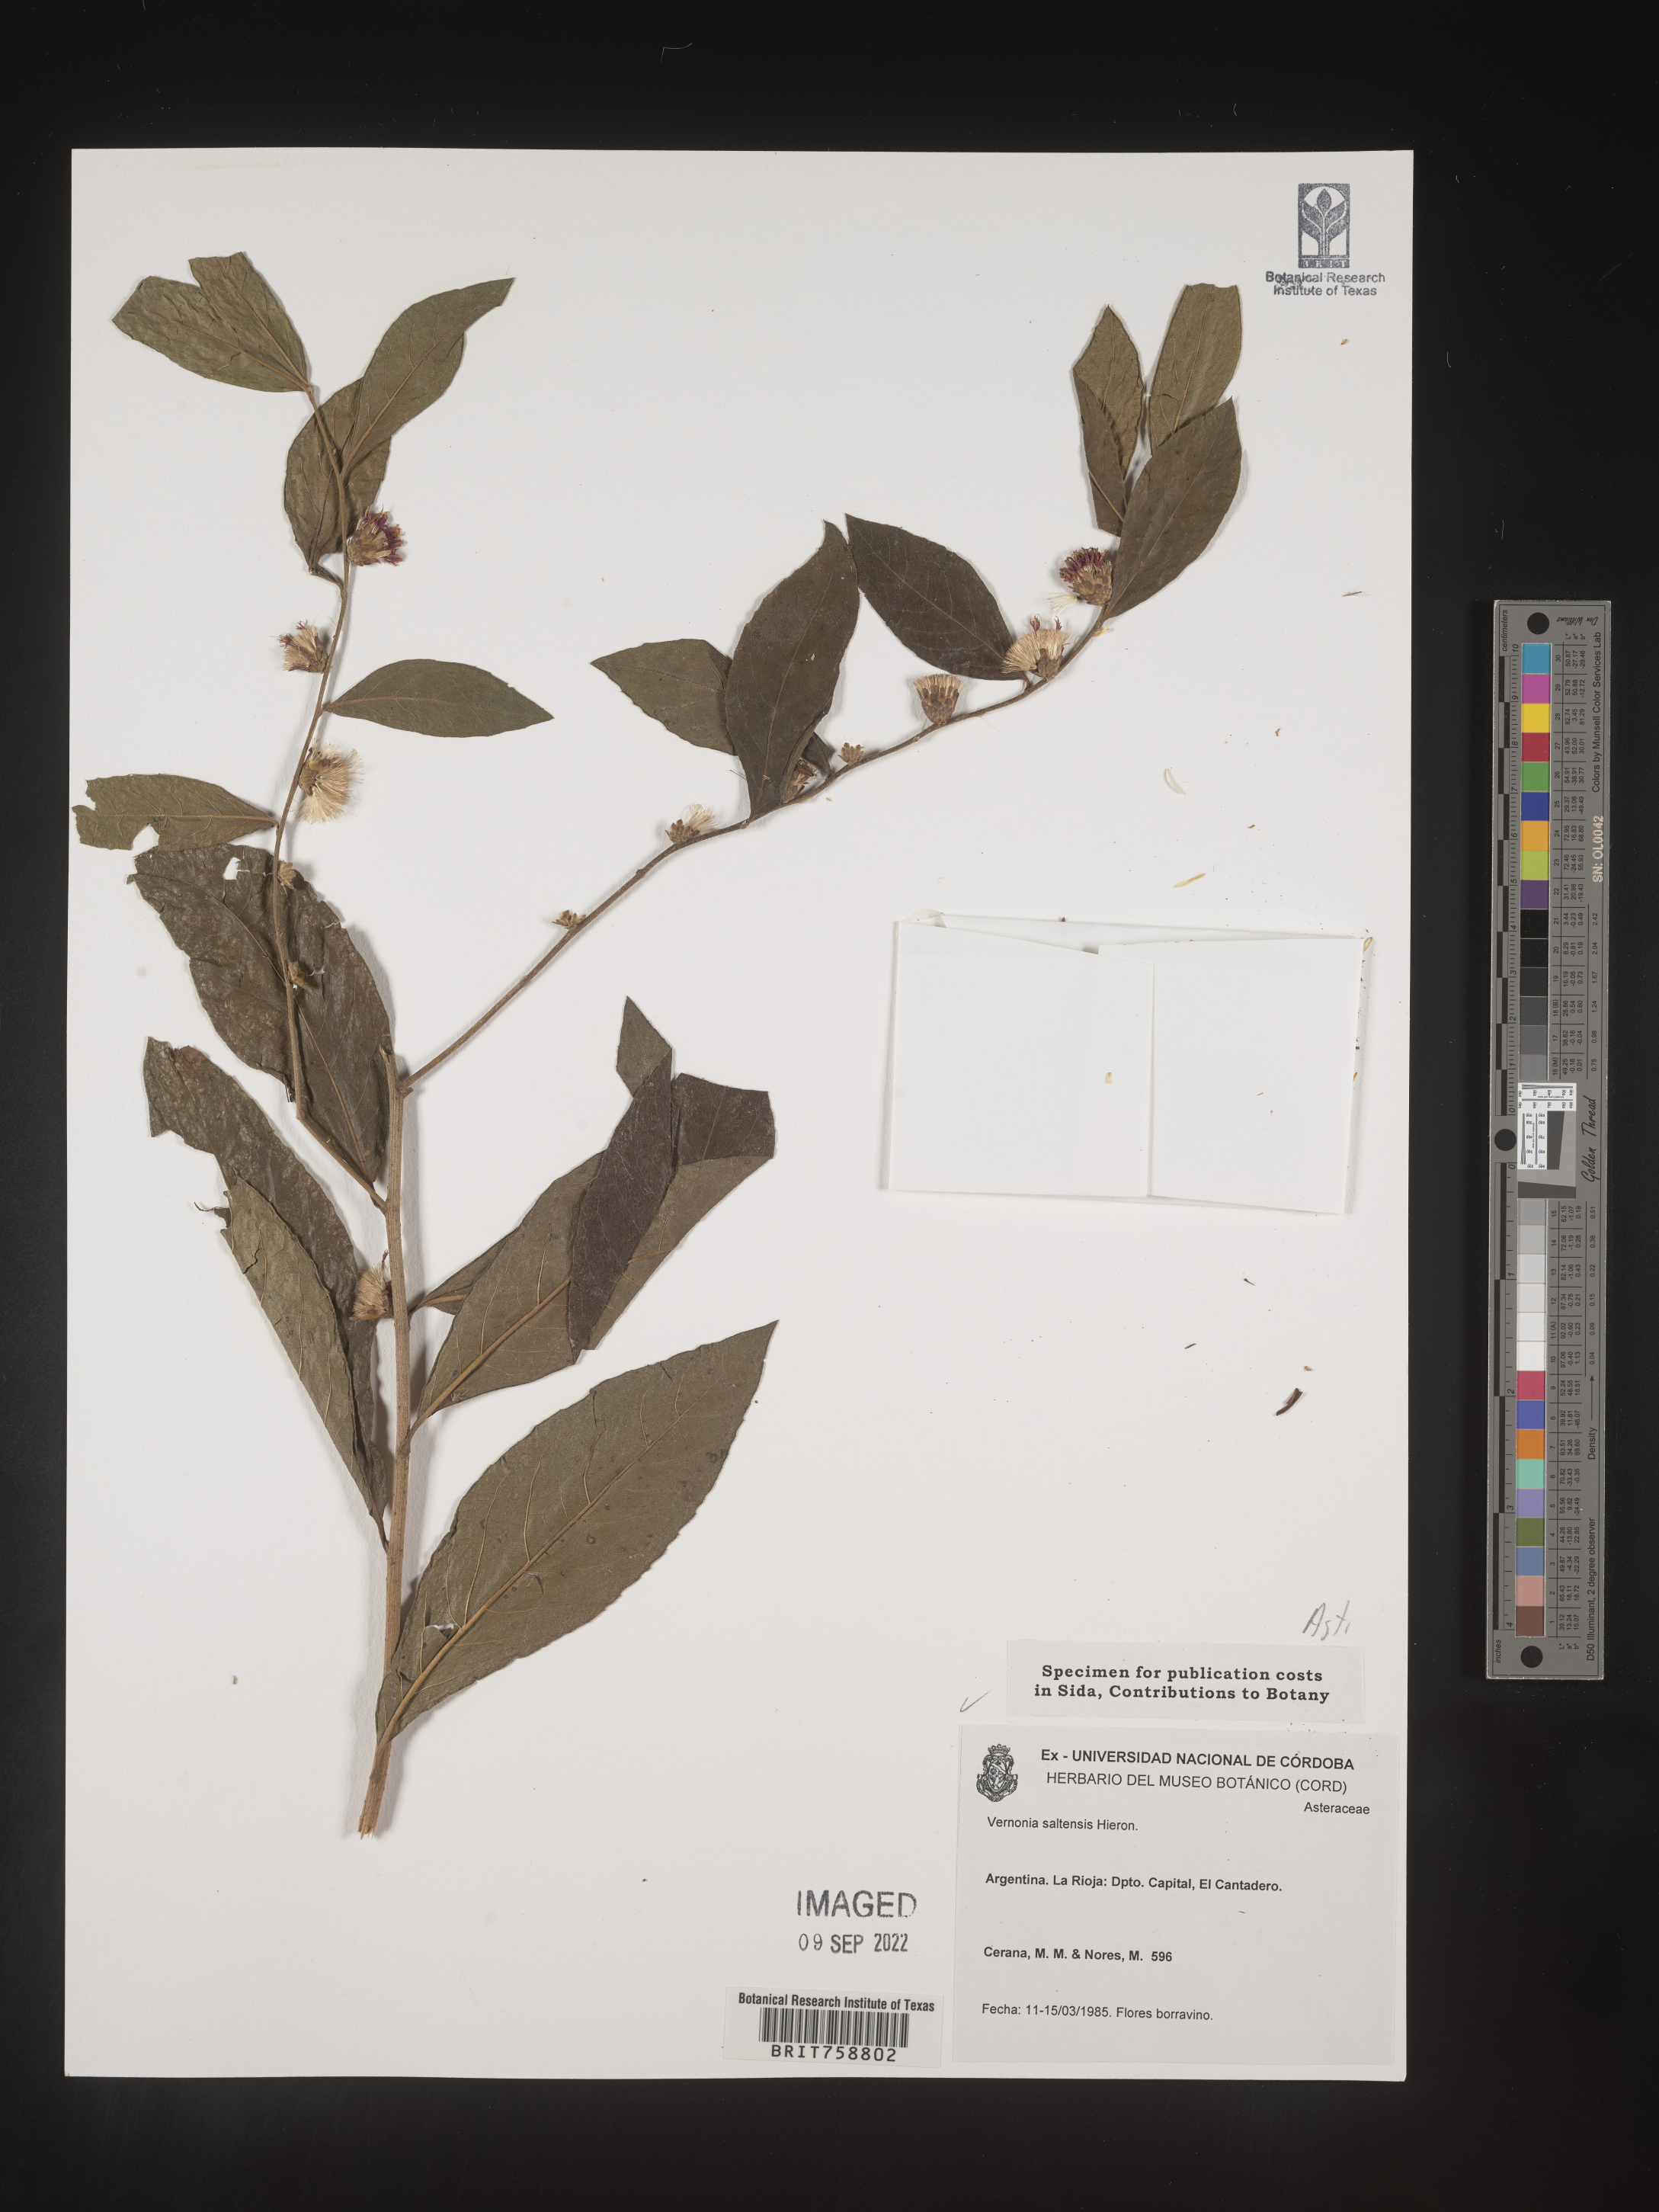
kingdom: Plantae
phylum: Tracheophyta
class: Magnoliopsida
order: Asterales
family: Asteraceae
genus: Vernonia
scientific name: Vernonia
